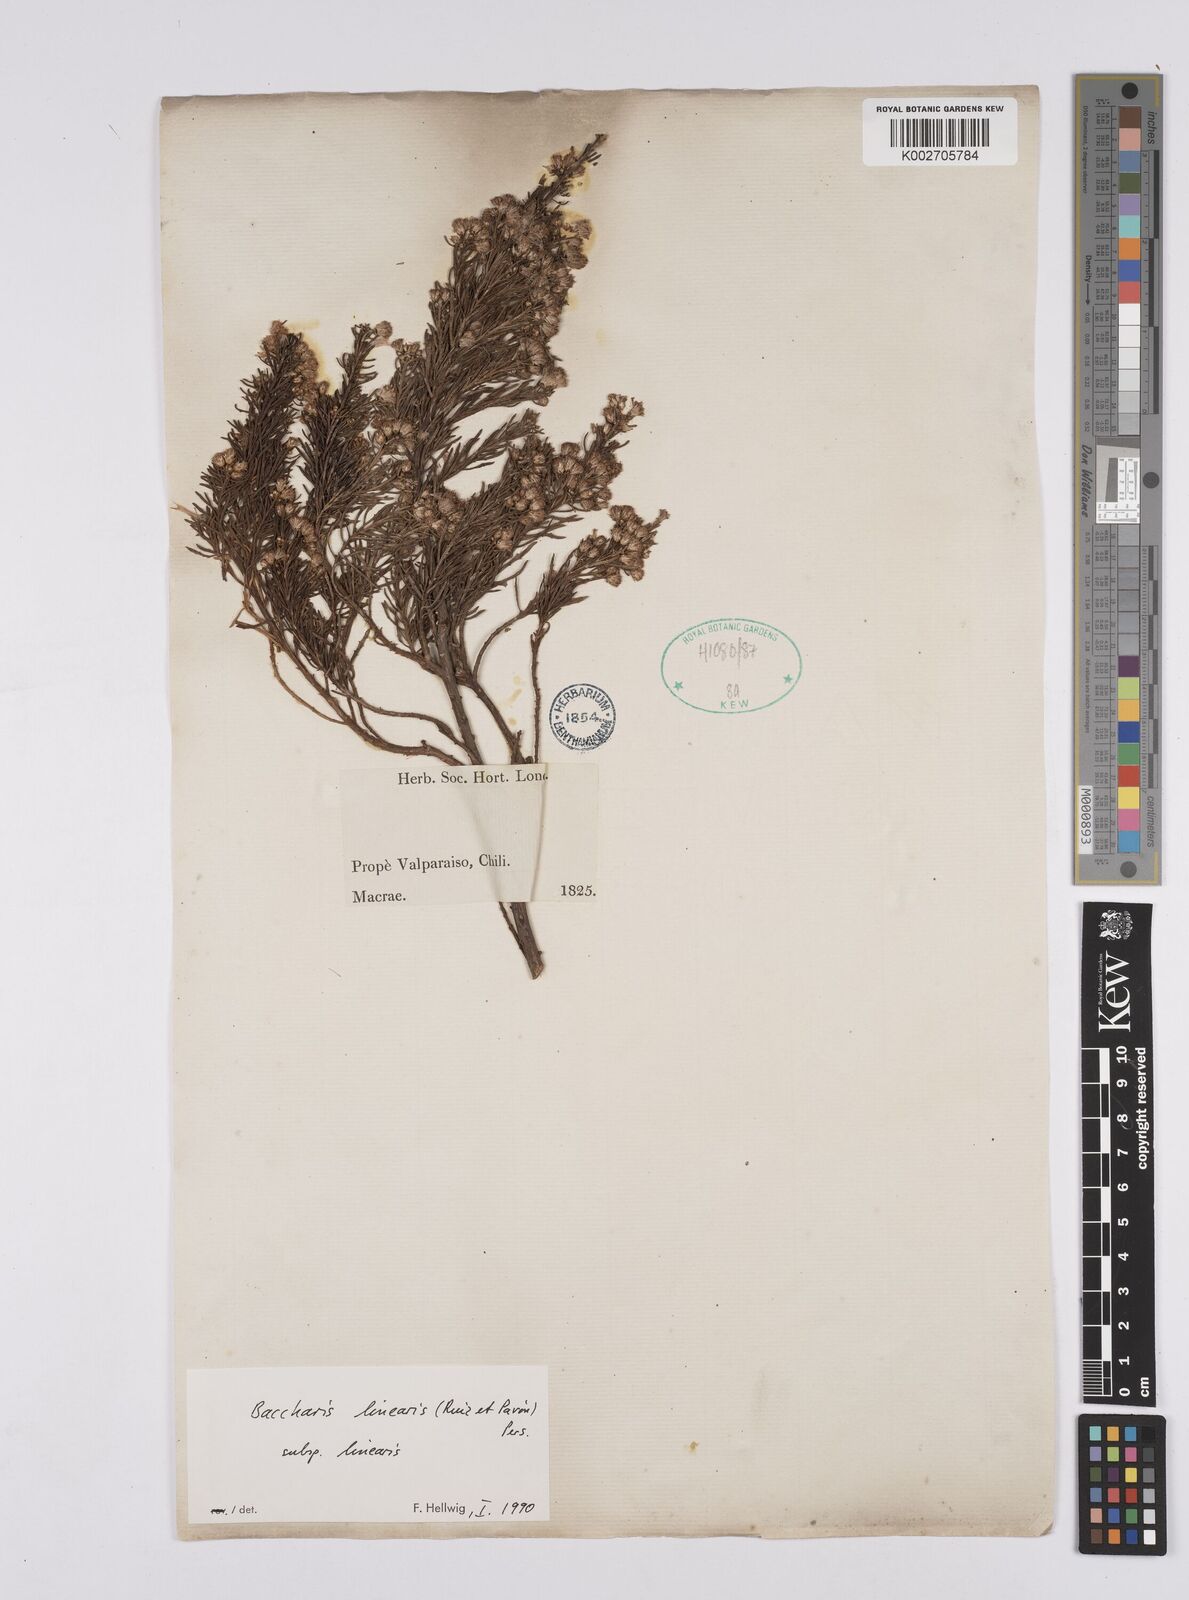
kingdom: Plantae
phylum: Tracheophyta
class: Magnoliopsida
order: Asterales
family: Asteraceae
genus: Baccharis
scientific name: Baccharis linearis
